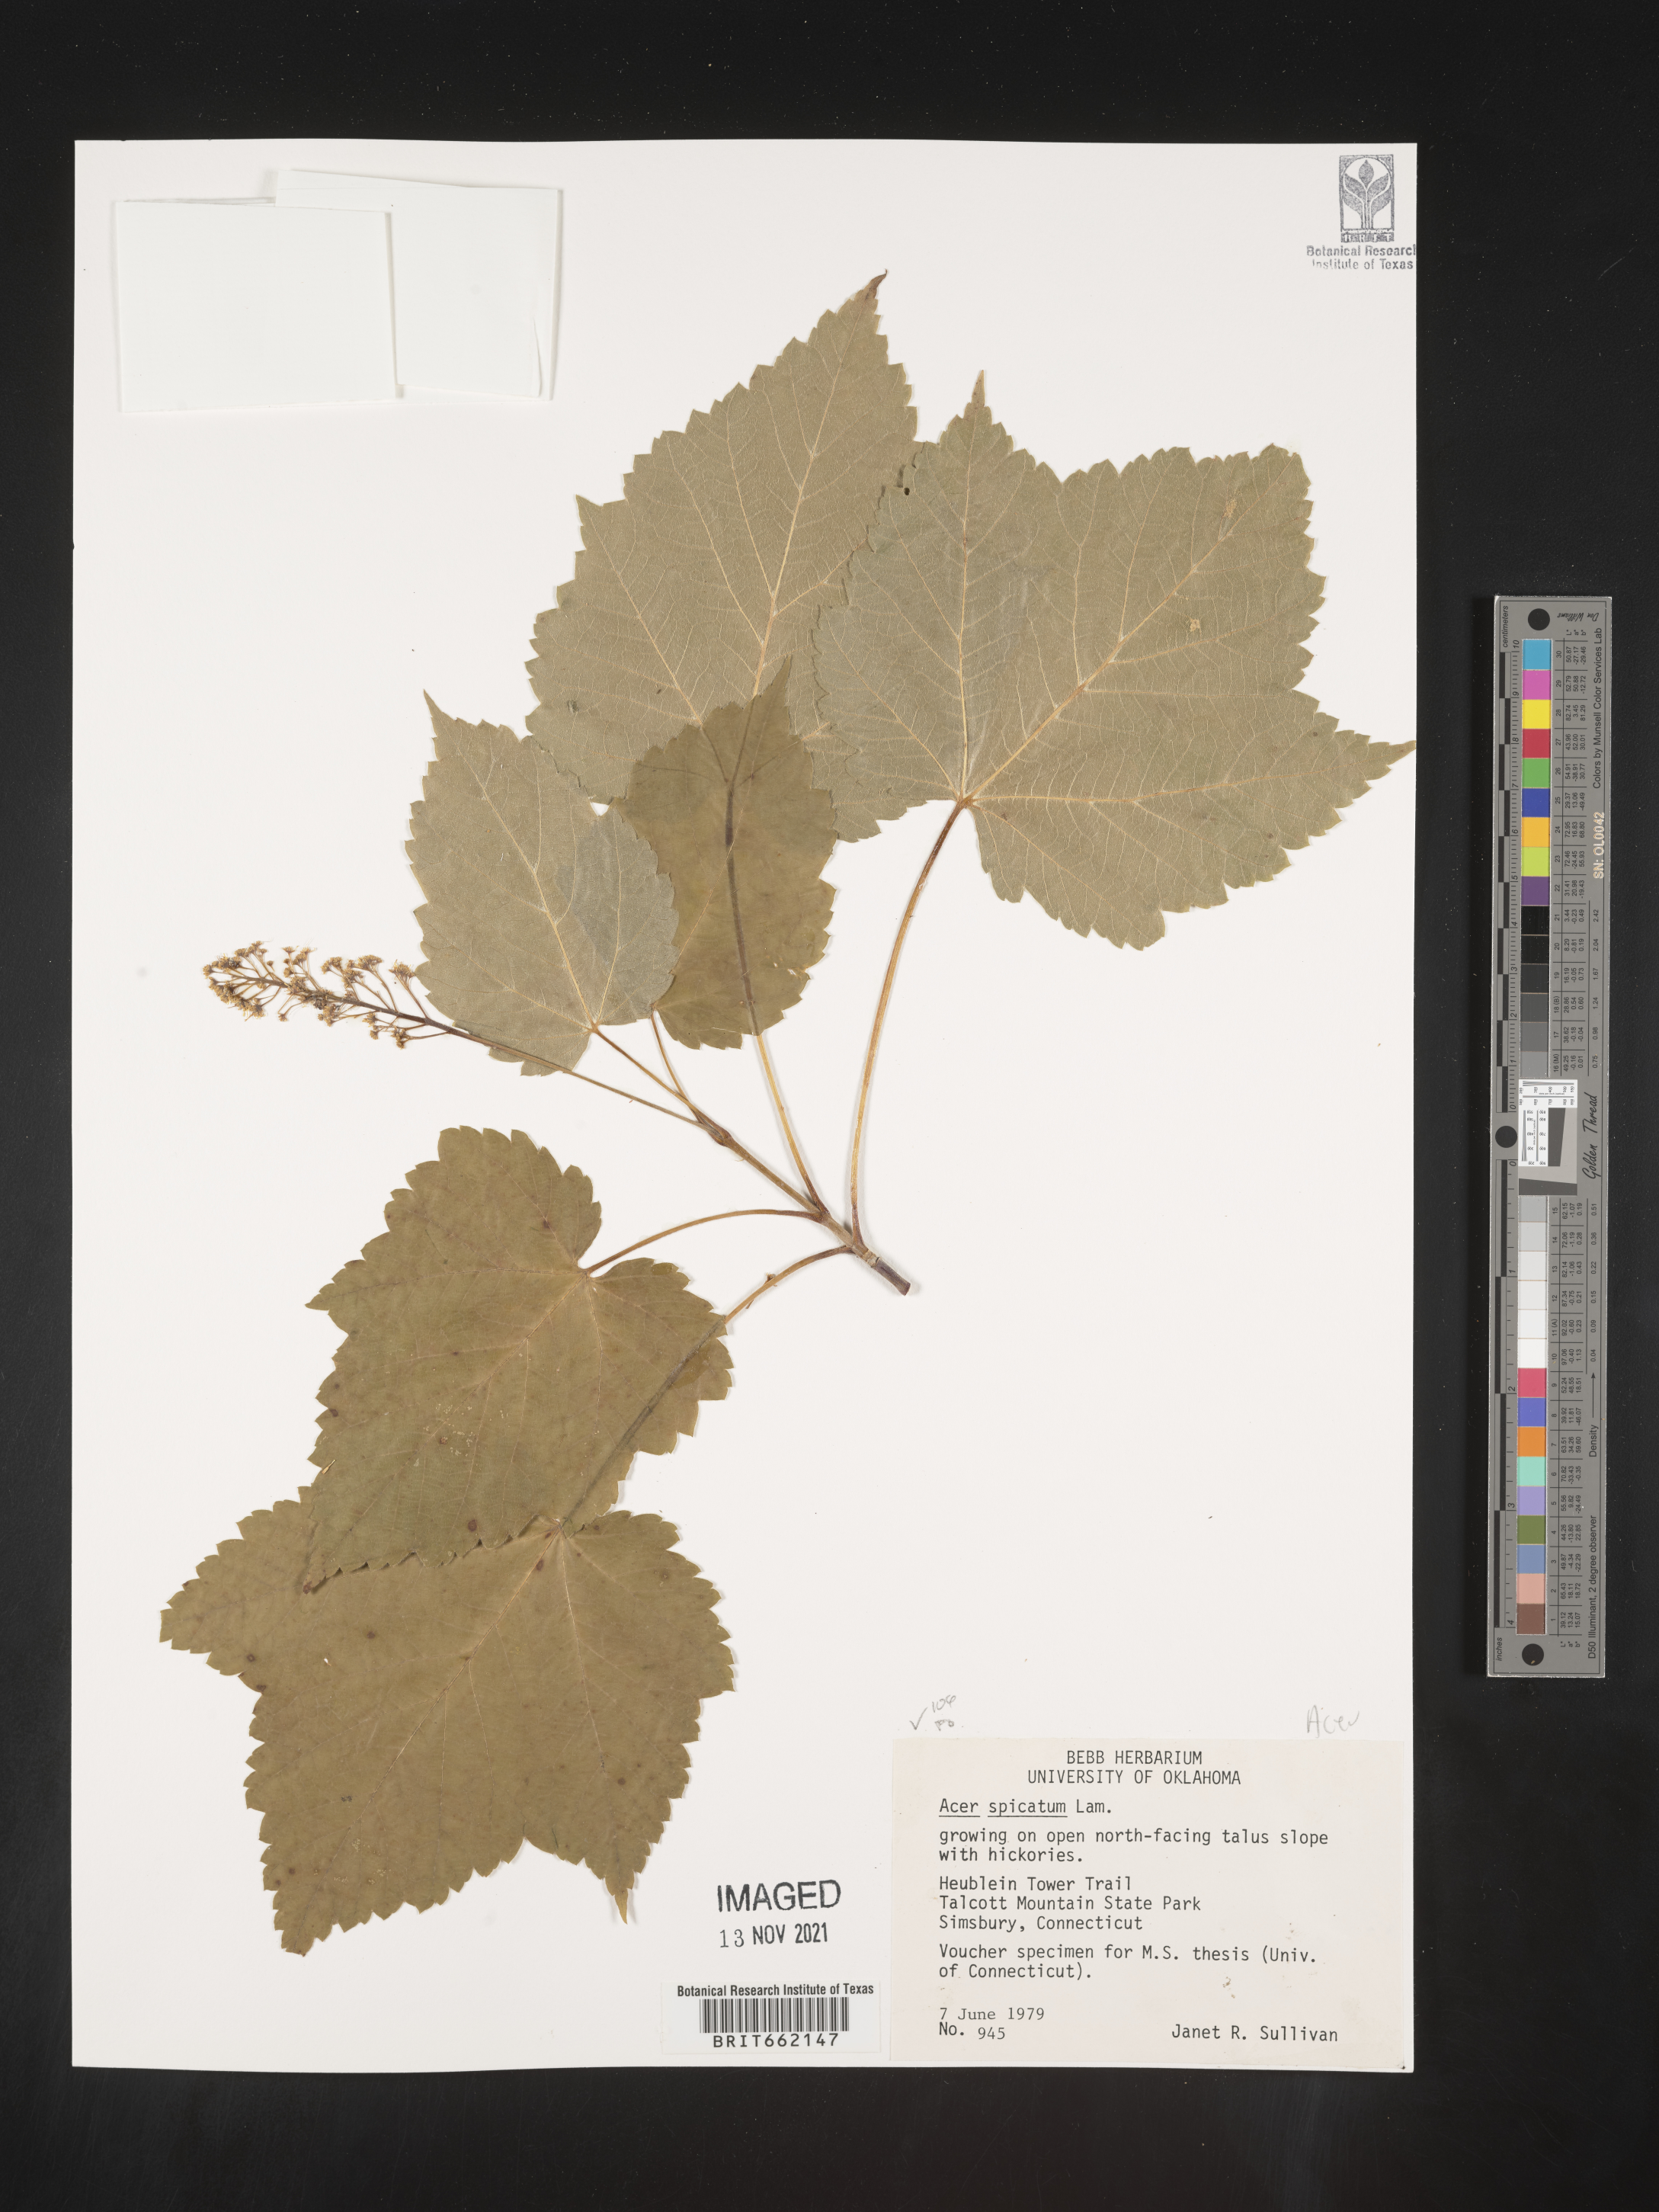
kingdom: Plantae
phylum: Tracheophyta
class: Magnoliopsida
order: Sapindales
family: Sapindaceae
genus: Acer
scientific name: Acer spicatum
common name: Mountain maple
